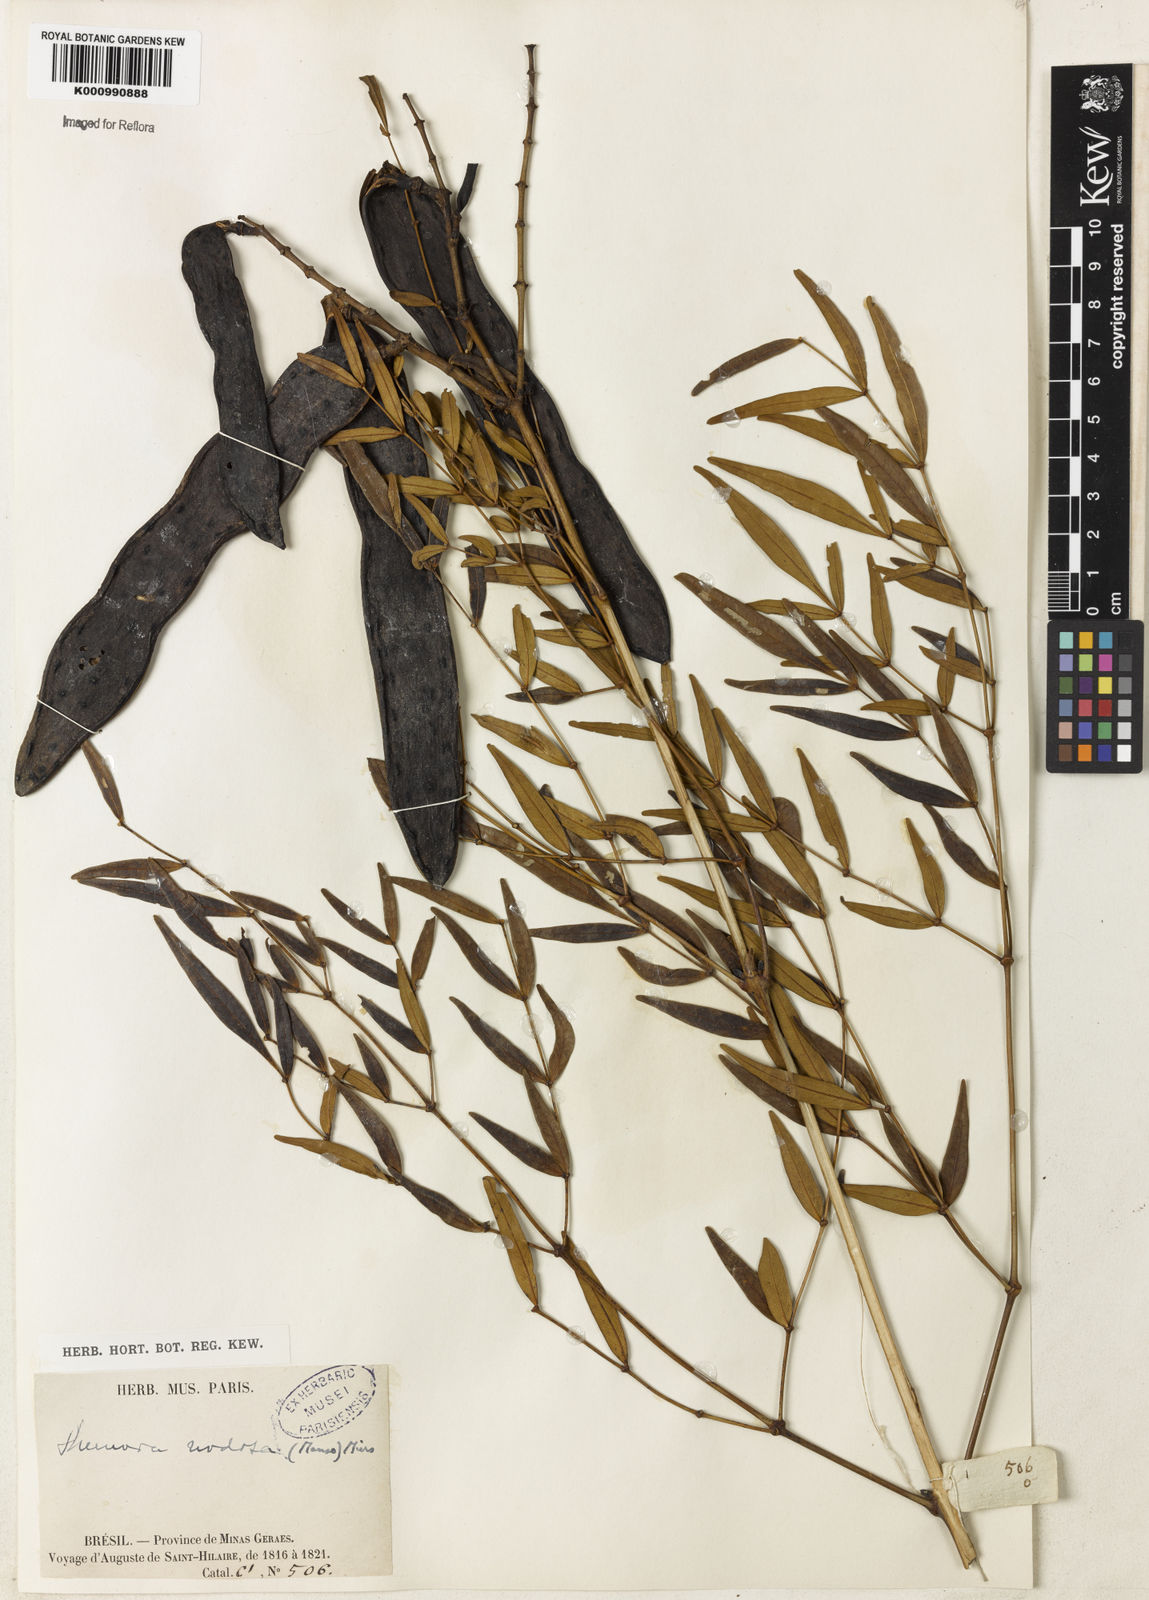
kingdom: Plantae
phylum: Tracheophyta
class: Magnoliopsida
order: Lamiales
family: Bignoniaceae
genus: Adenocalymma
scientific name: Adenocalymma nodosum
